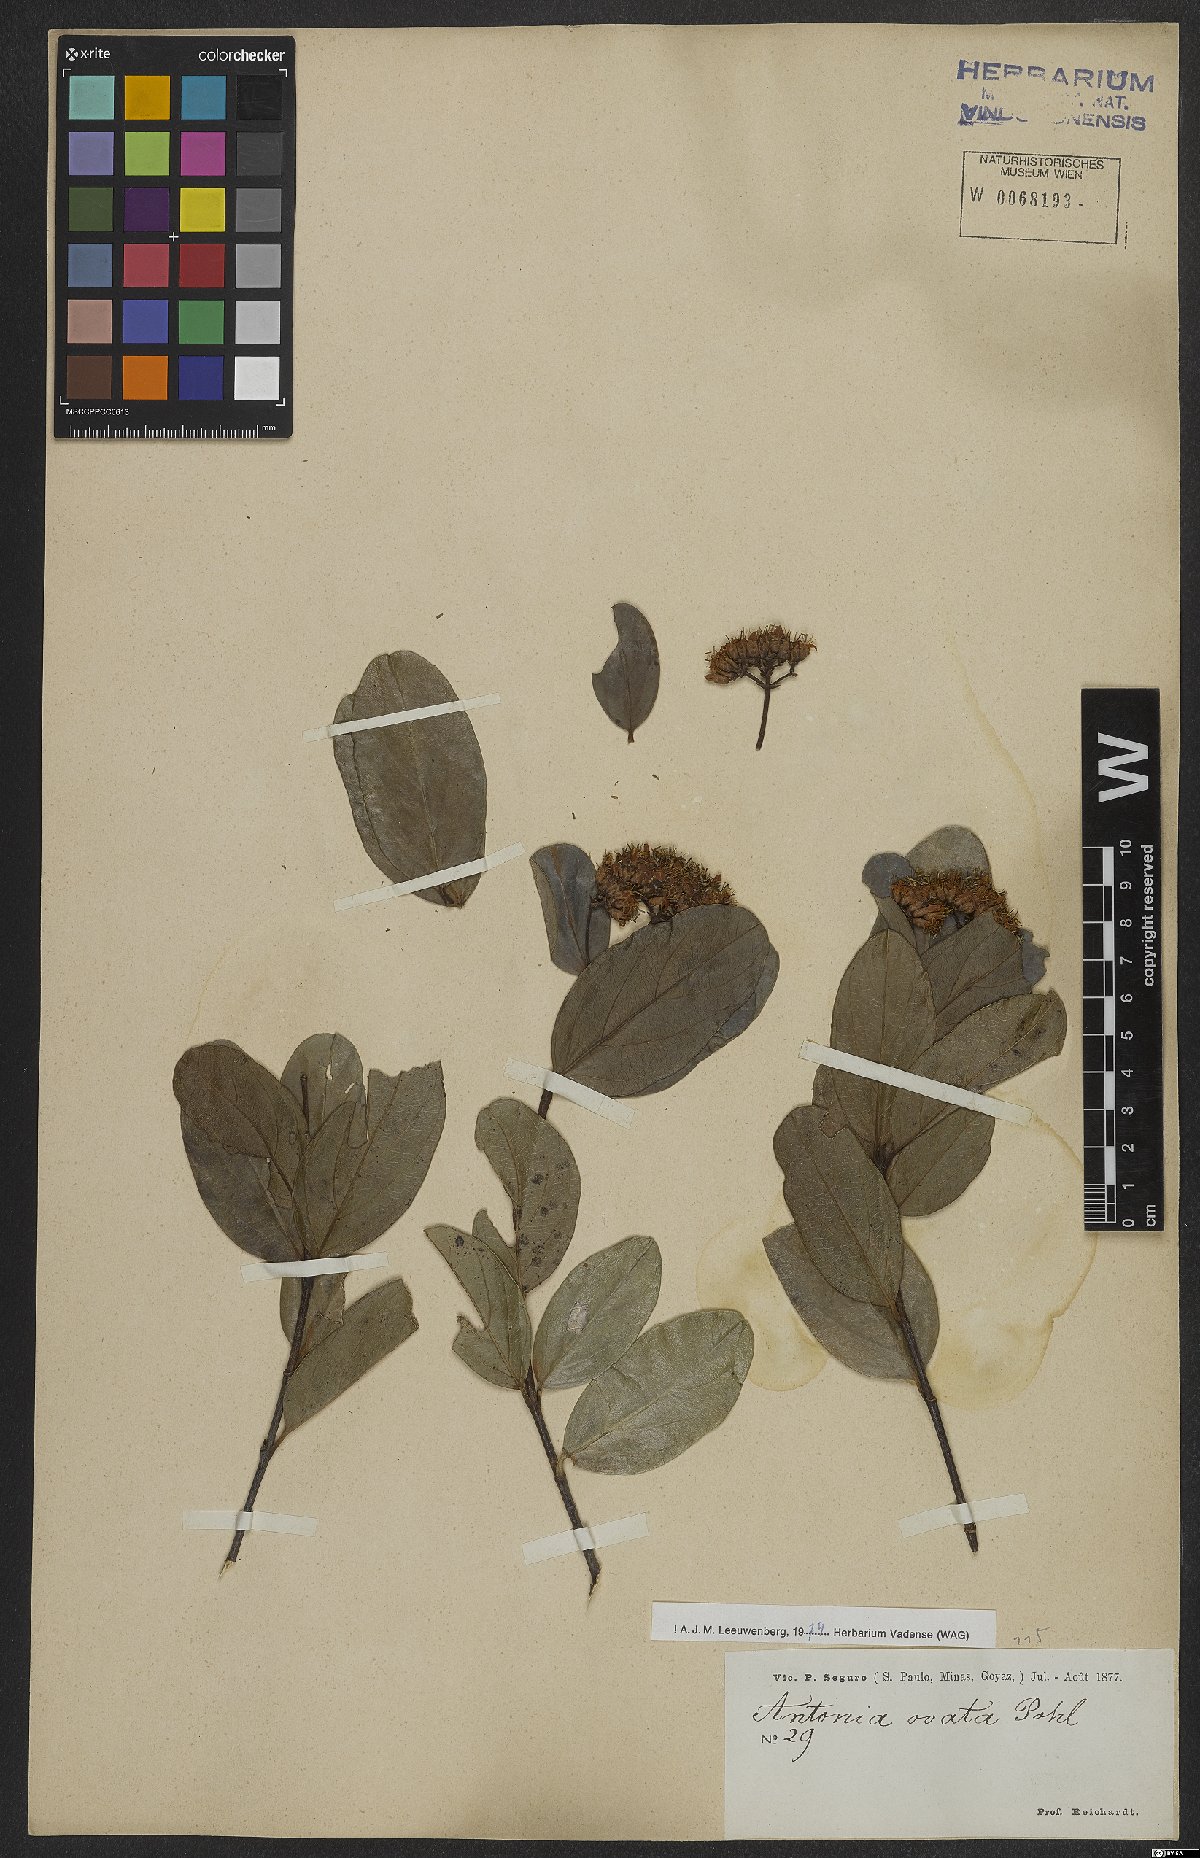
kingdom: Plantae
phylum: Tracheophyta
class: Magnoliopsida
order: Gentianales
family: Loganiaceae
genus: Antonia
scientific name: Antonia ovata
